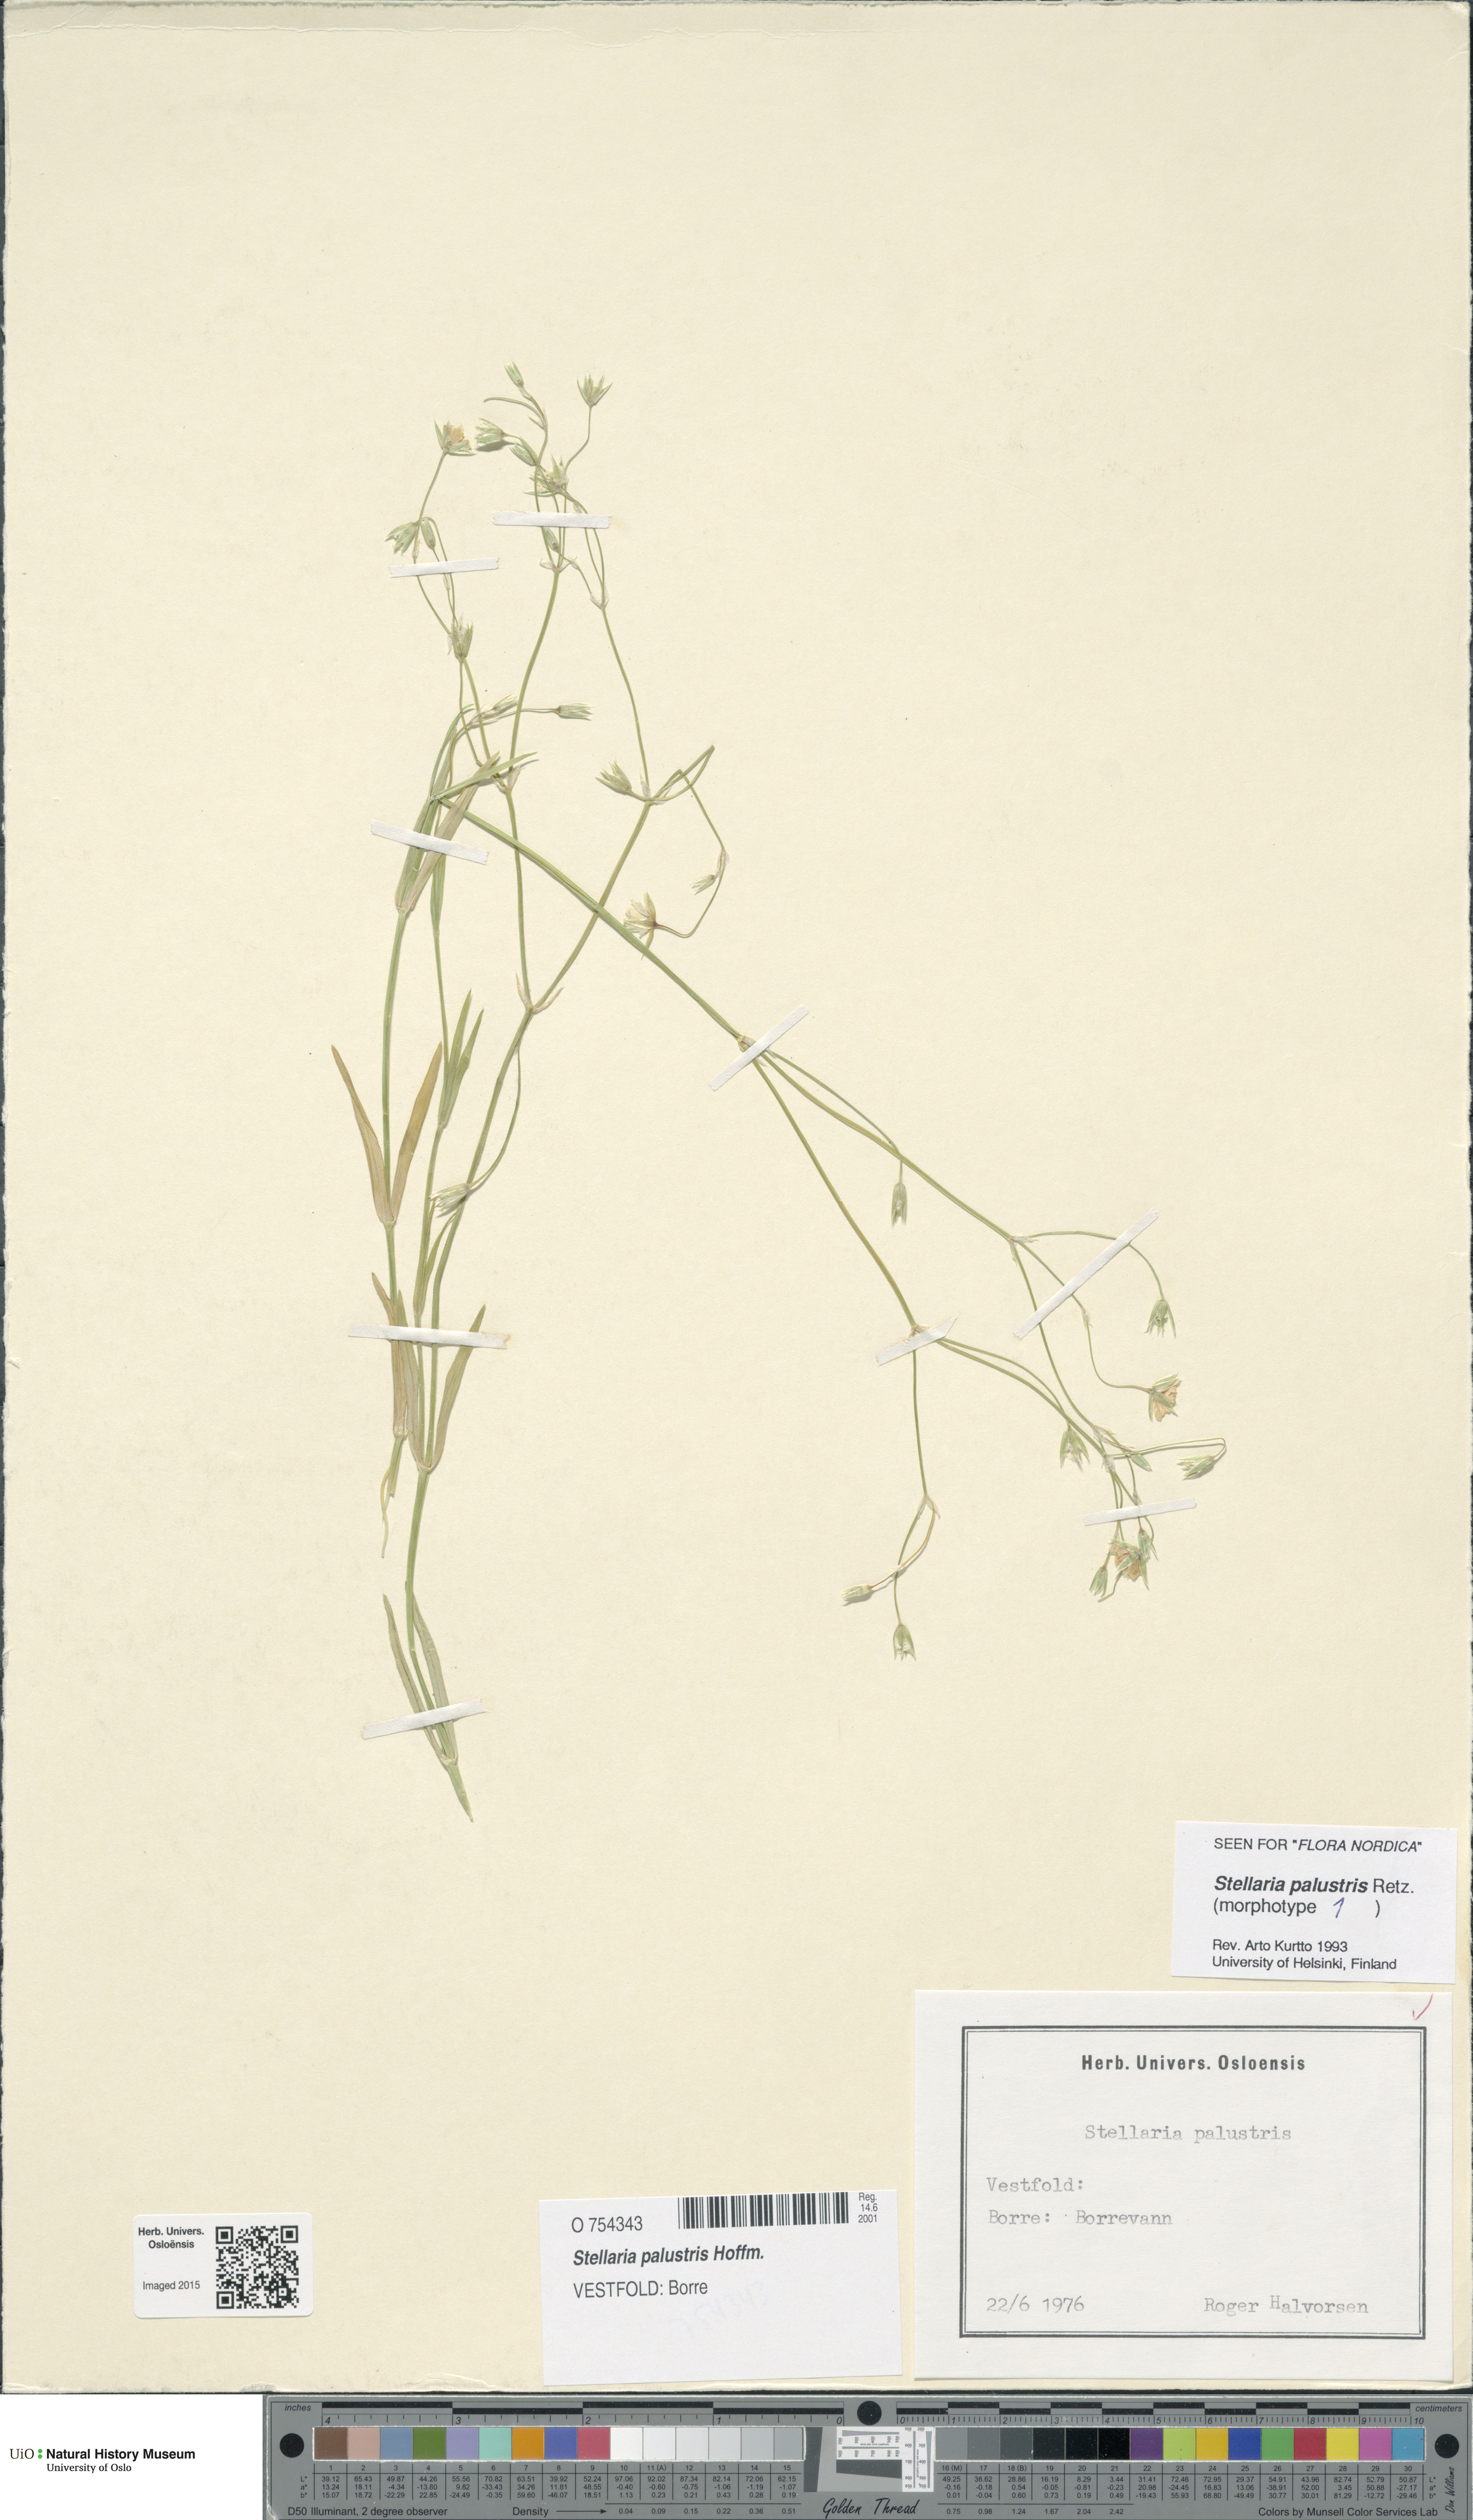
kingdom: Plantae
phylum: Tracheophyta
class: Magnoliopsida
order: Caryophyllales
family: Caryophyllaceae
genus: Stellaria
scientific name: Stellaria palustris
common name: Marsh stitchwort
